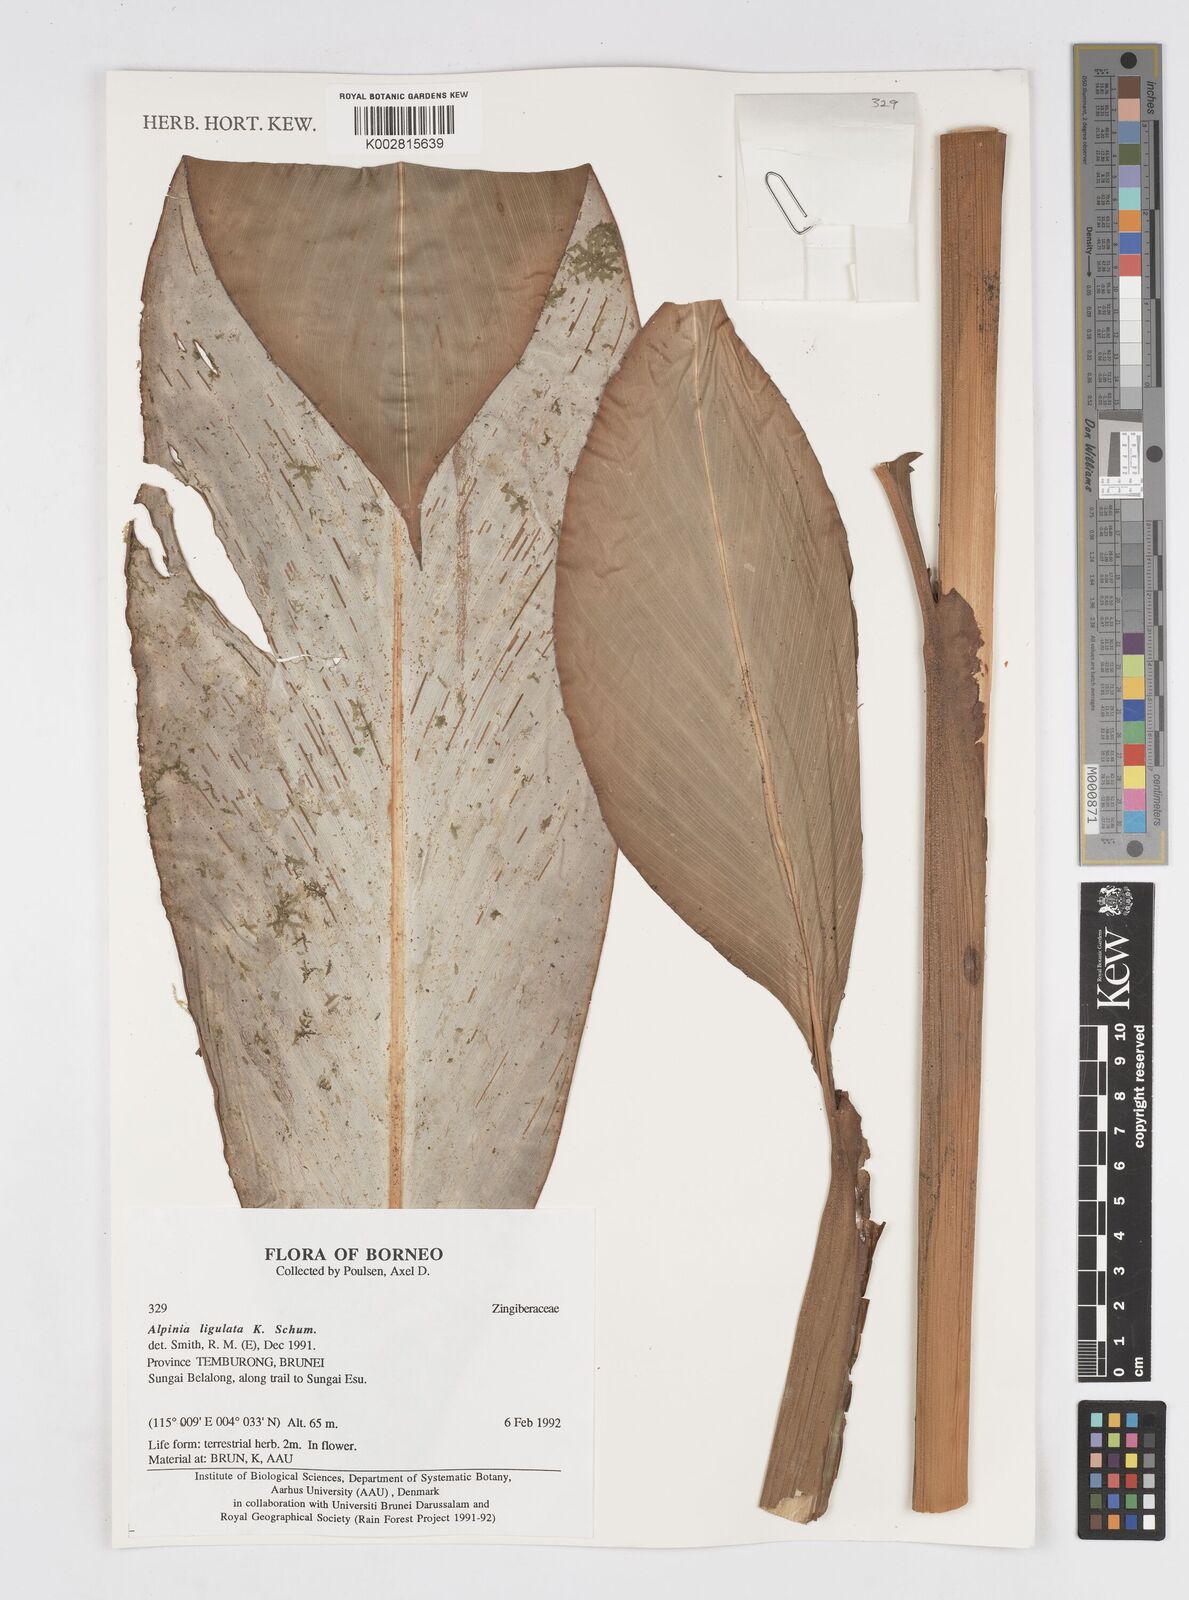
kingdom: Plantae
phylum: Tracheophyta
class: Liliopsida
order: Zingiberales
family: Zingiberaceae
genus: Alpinia
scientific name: Alpinia ligulata
